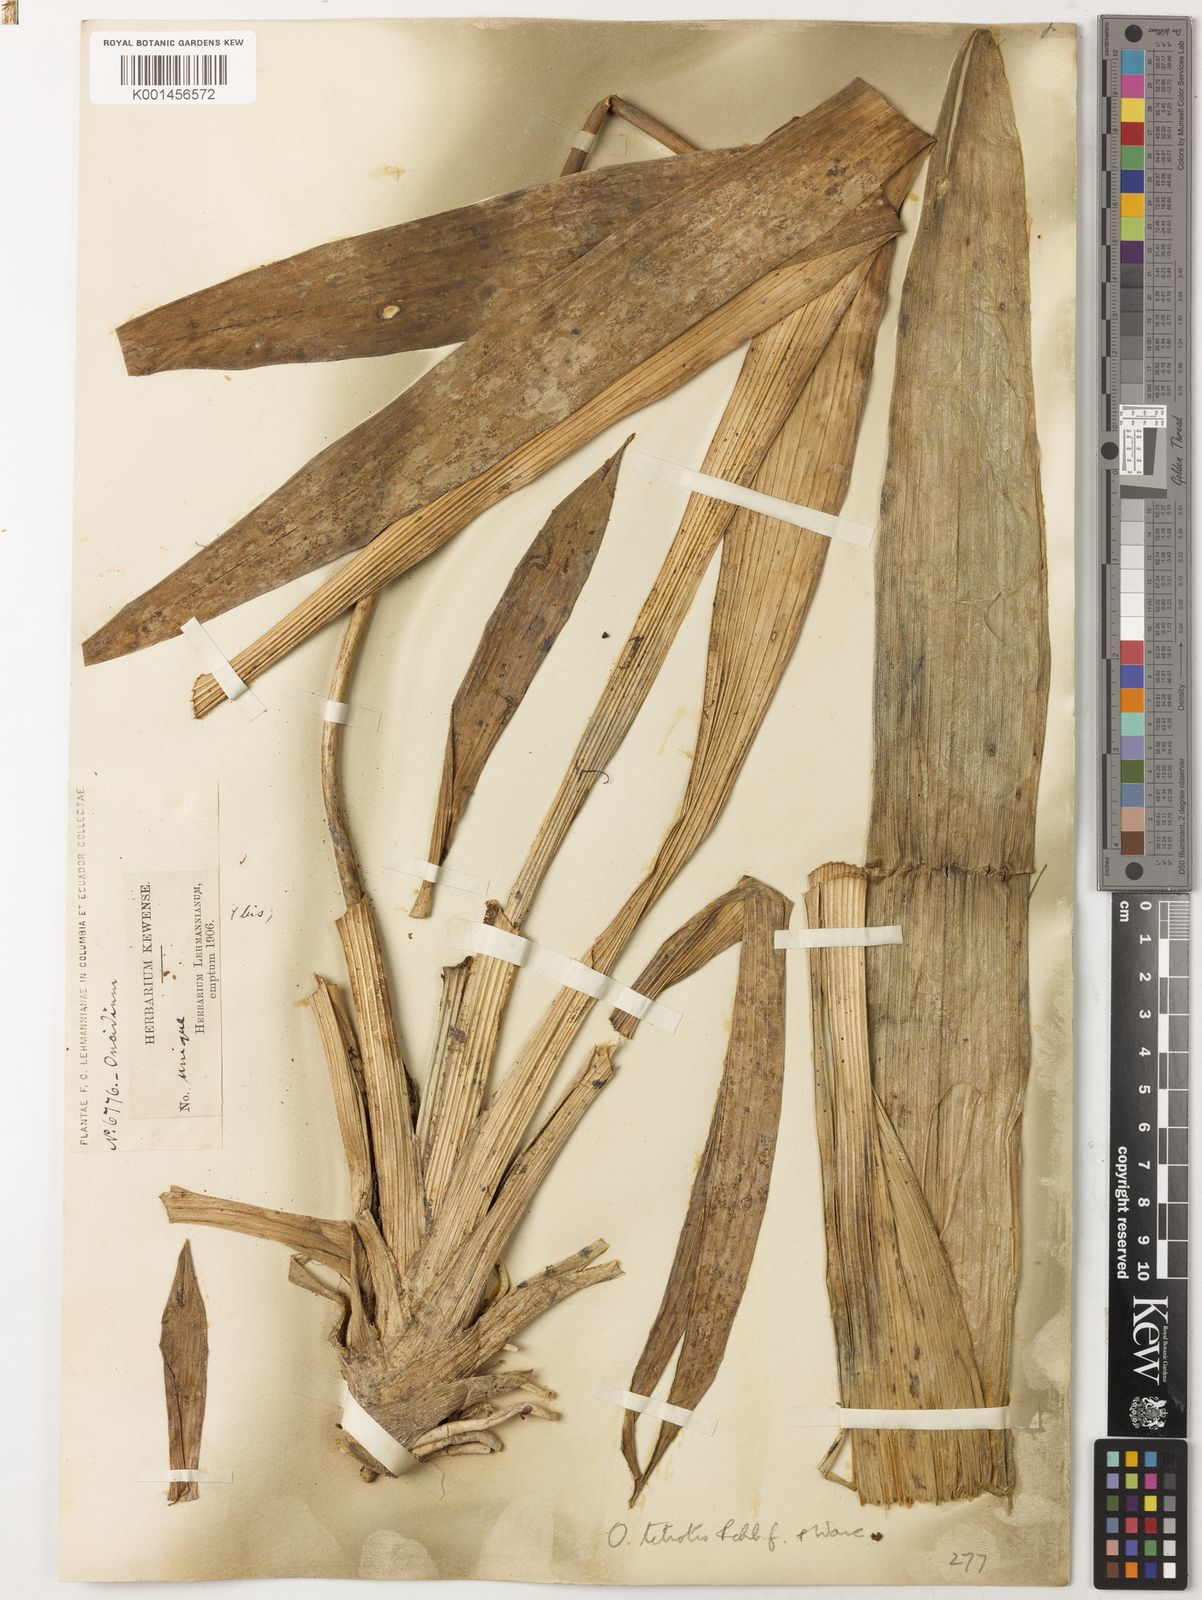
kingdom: Plantae
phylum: Tracheophyta
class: Liliopsida
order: Asparagales
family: Orchidaceae
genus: Oncidium
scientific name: Oncidium tetrotis
